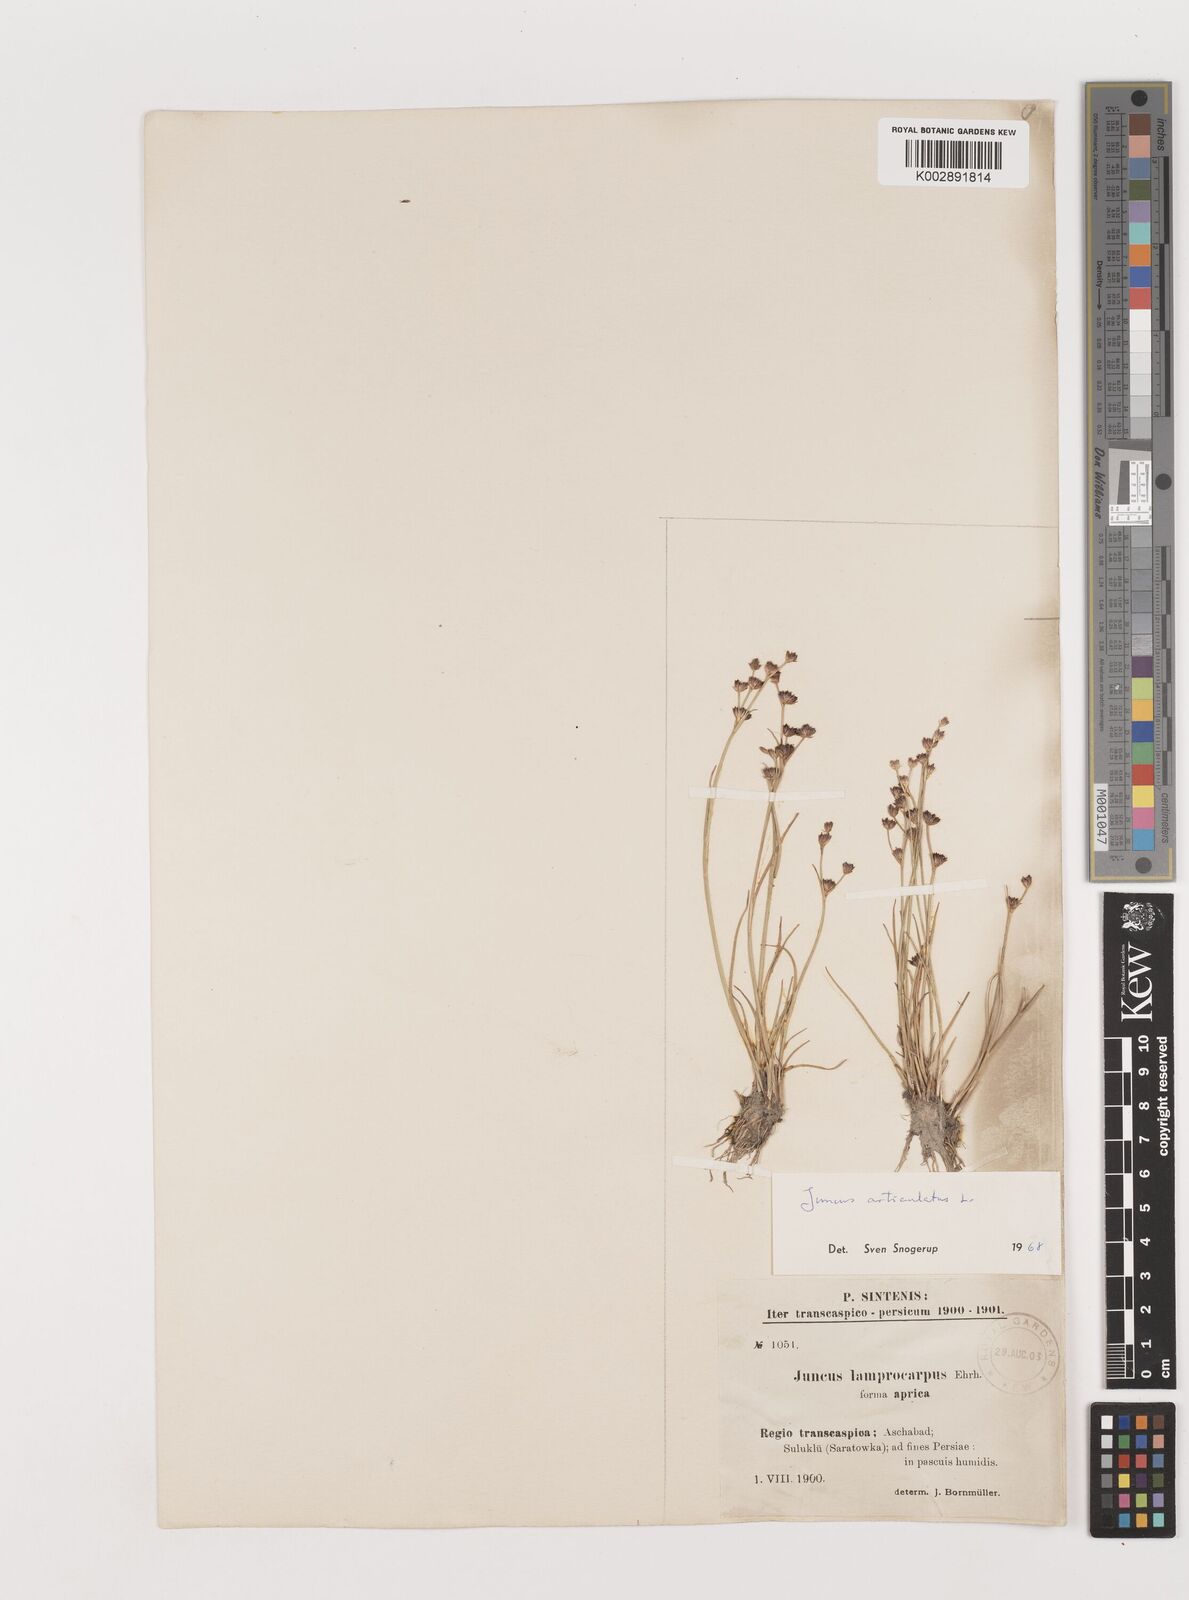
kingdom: Plantae
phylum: Tracheophyta
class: Liliopsida
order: Poales
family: Juncaceae
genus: Juncus
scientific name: Juncus articulatus
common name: Jointed rush
